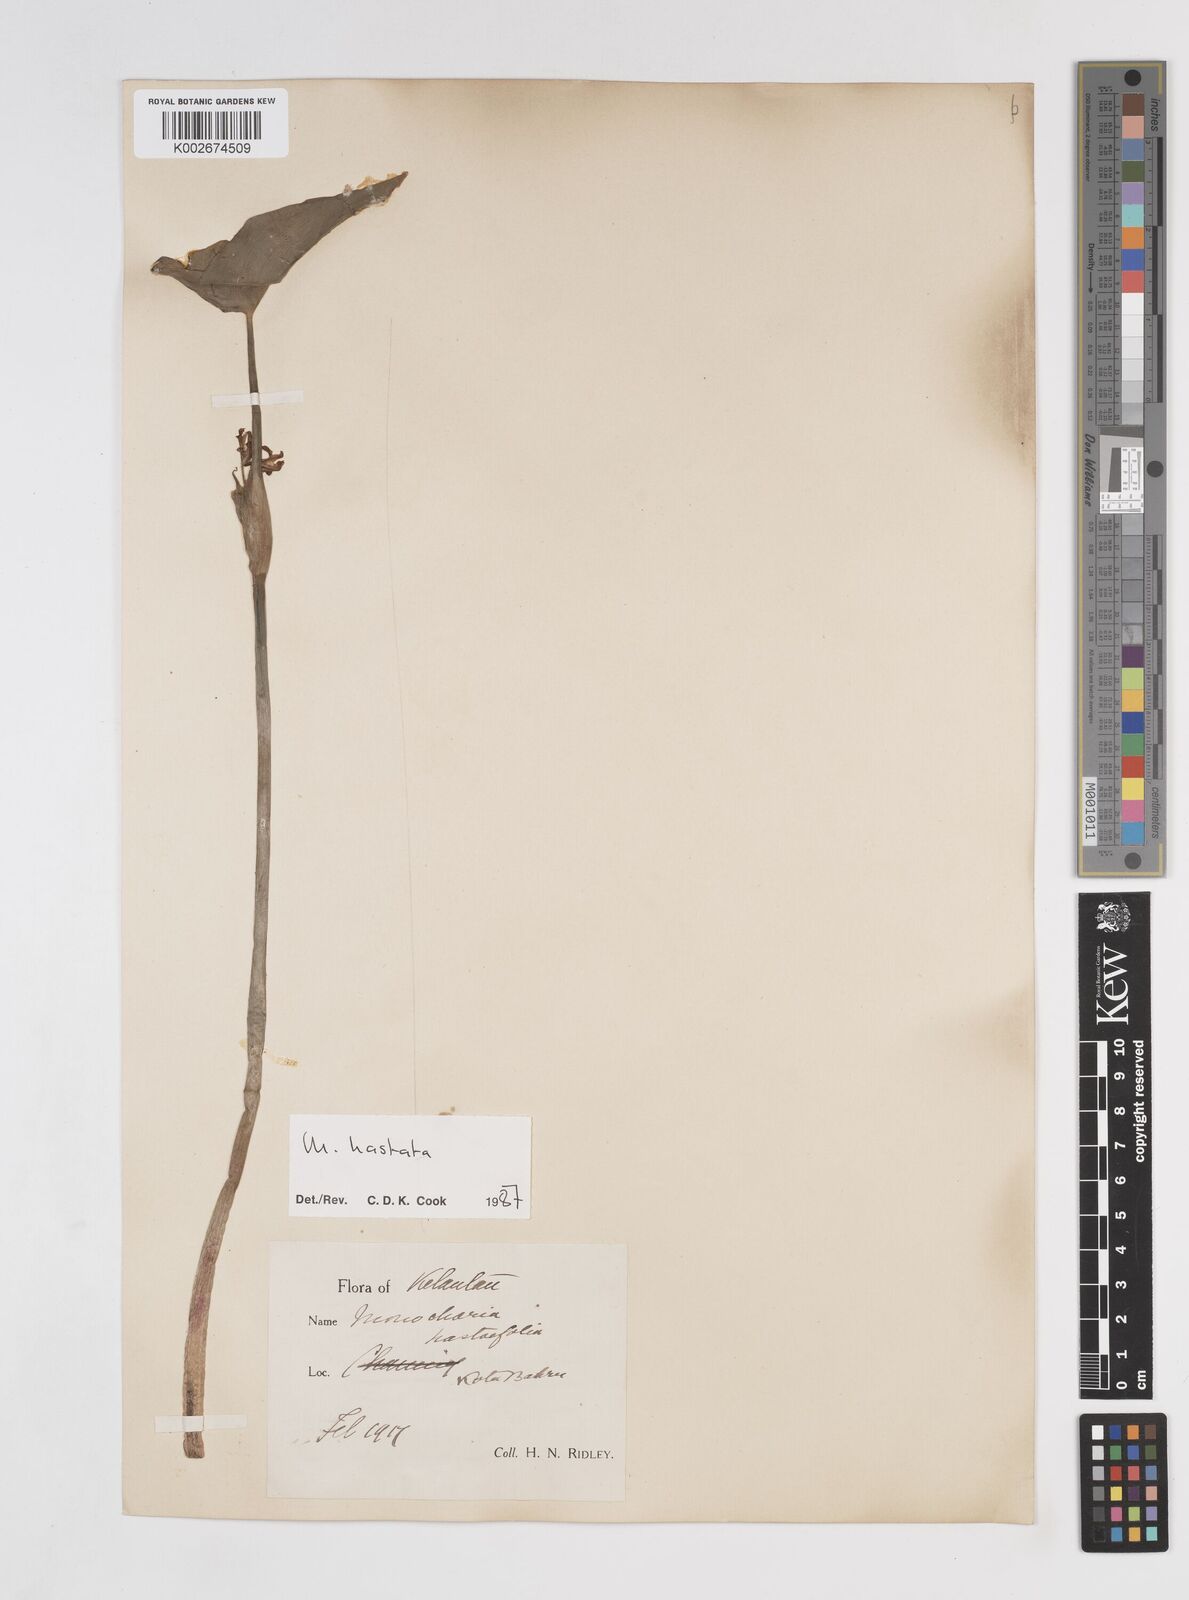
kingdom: Plantae
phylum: Tracheophyta
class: Liliopsida
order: Commelinales
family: Pontederiaceae
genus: Pontederia
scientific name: Pontederia vaginalis
